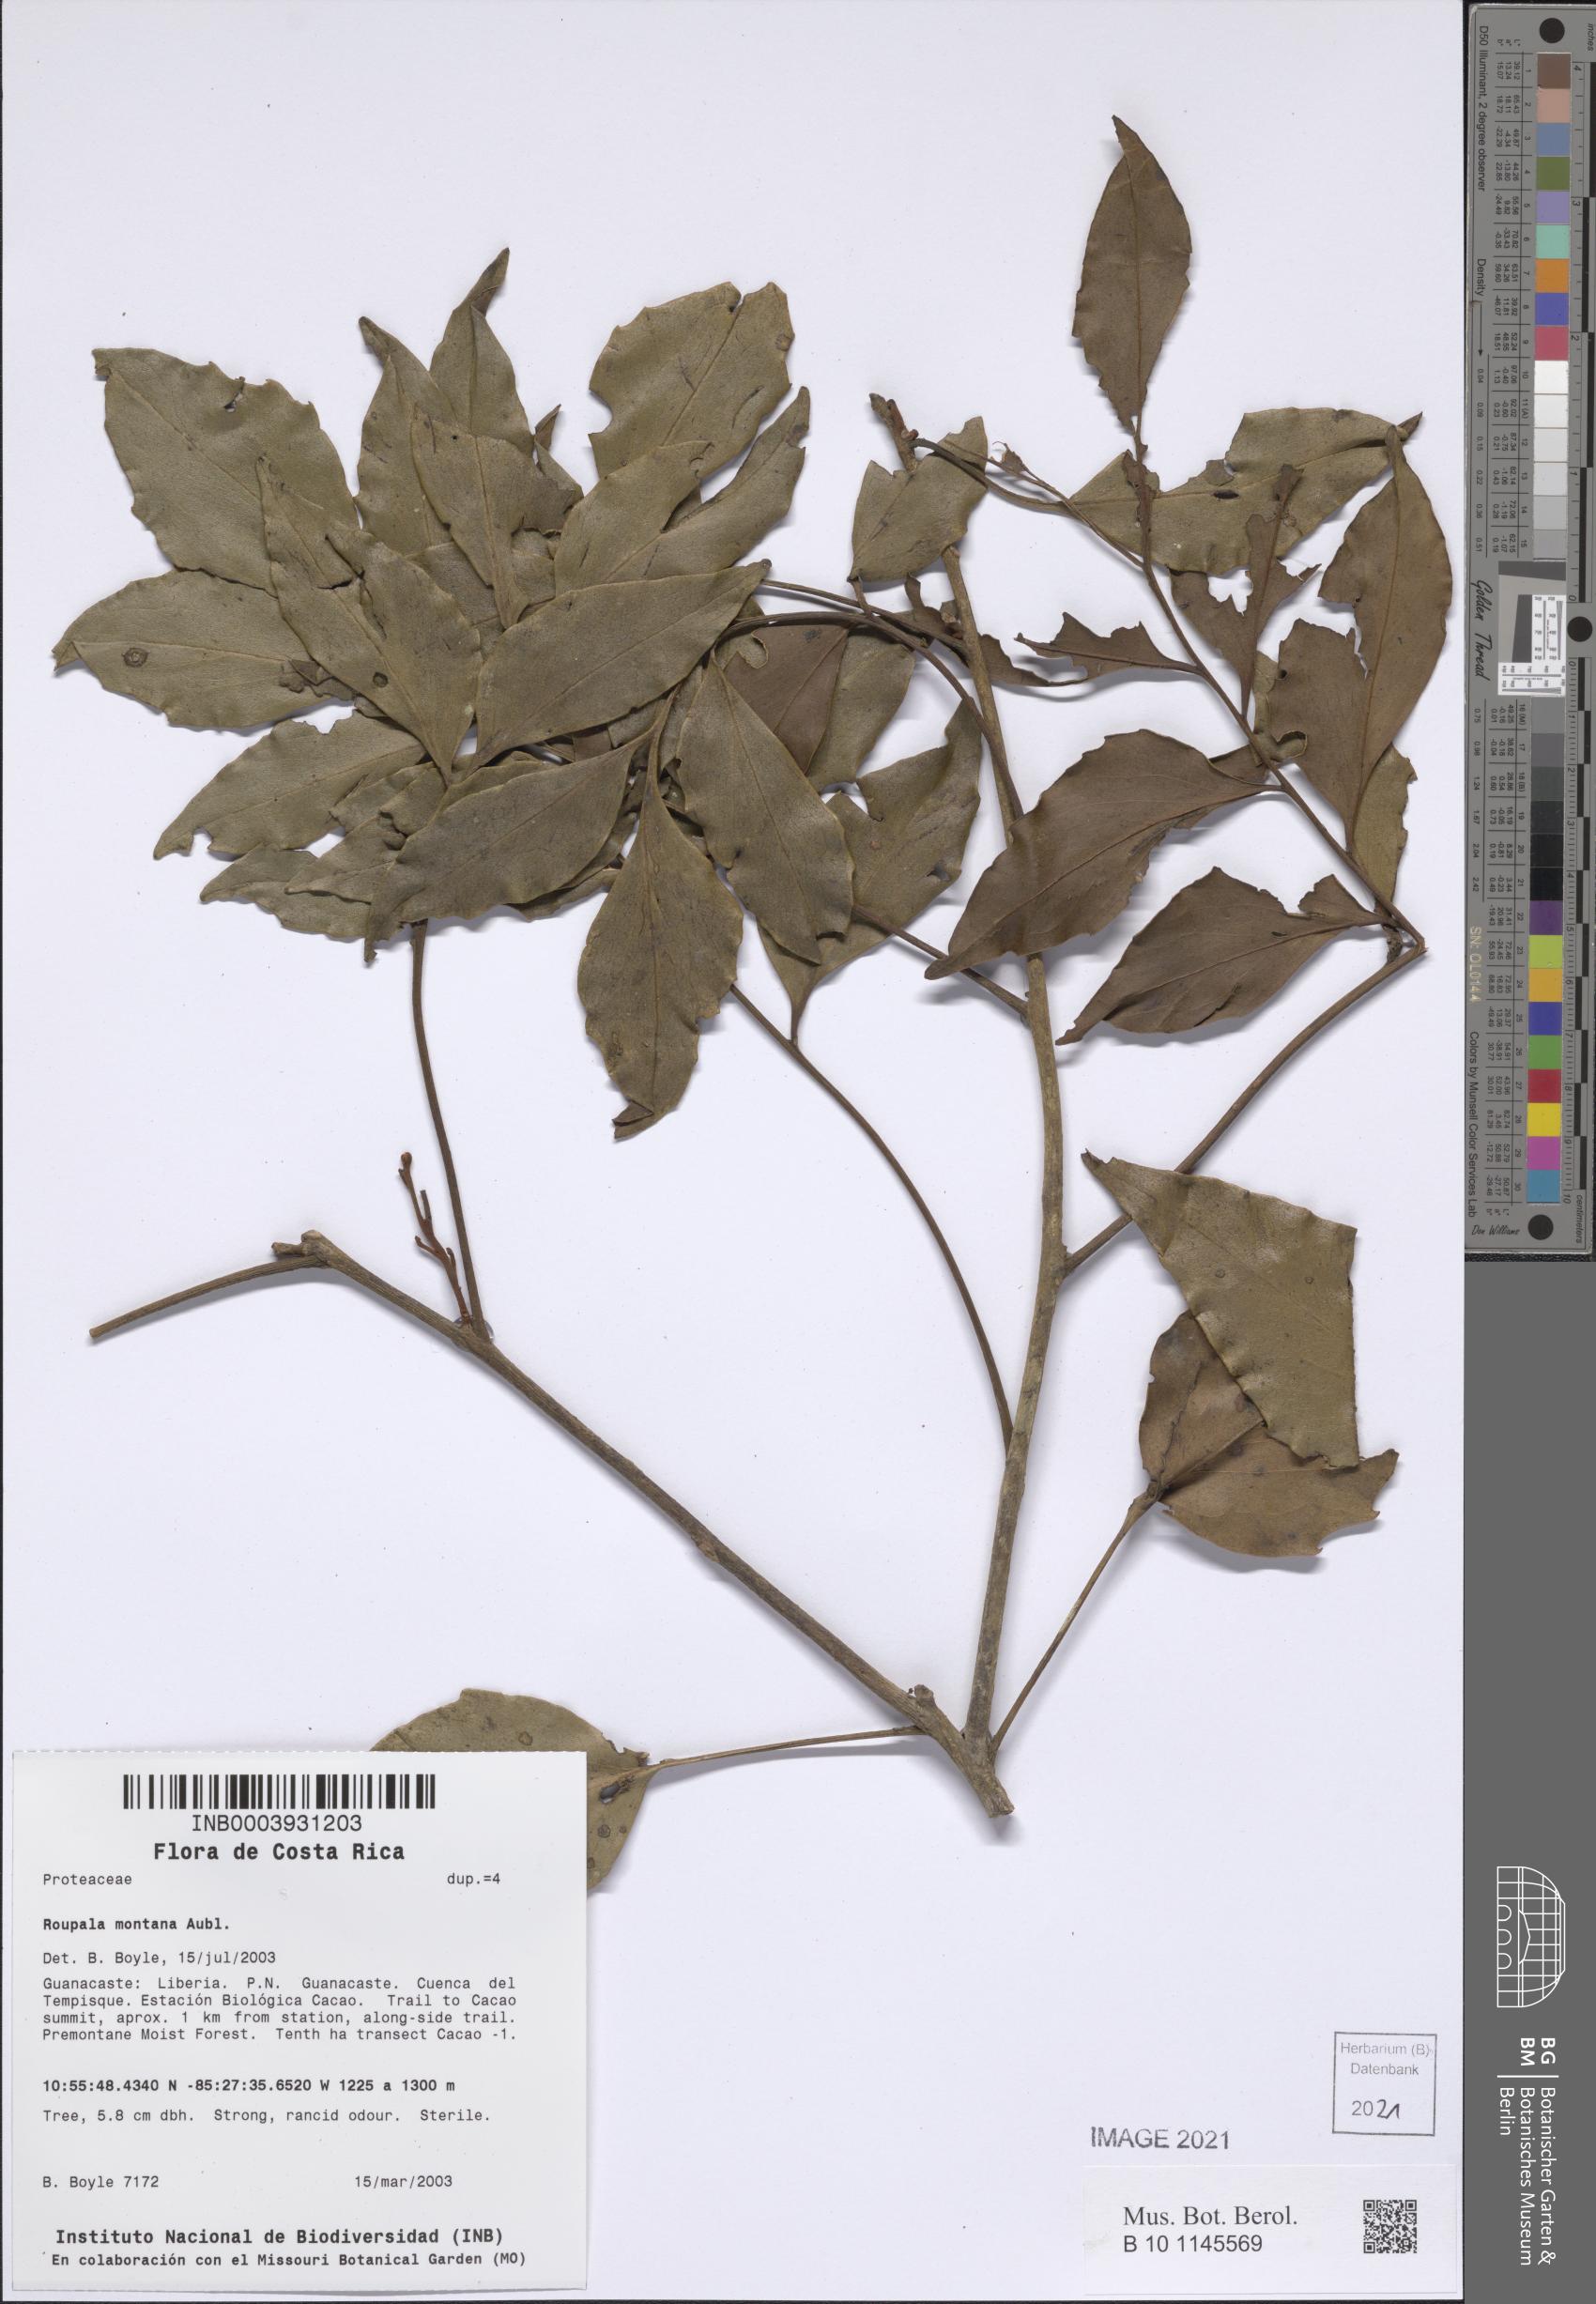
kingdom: Plantae
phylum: Tracheophyta
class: Magnoliopsida
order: Proteales
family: Proteaceae
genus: Roupala
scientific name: Roupala montana
